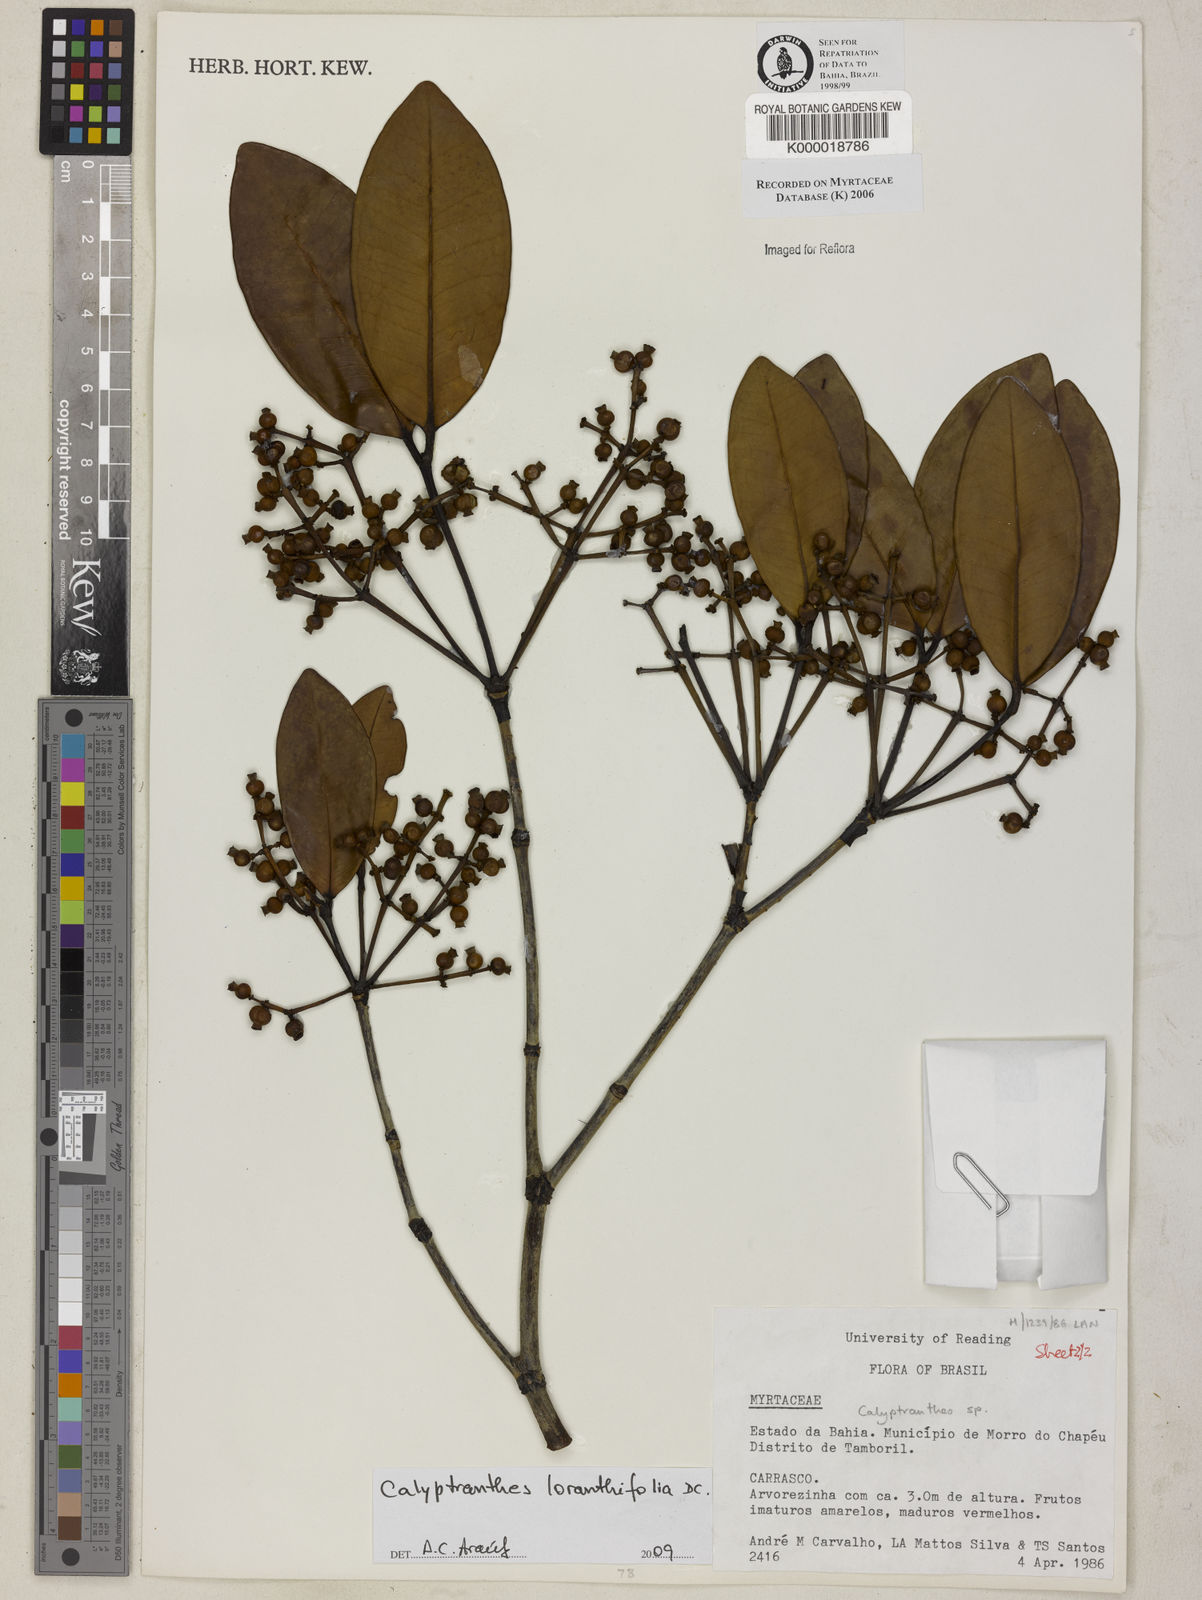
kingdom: Plantae
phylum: Tracheophyta
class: Magnoliopsida
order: Myrtales
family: Myrtaceae
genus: Calyptranthes
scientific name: Calyptranthes
